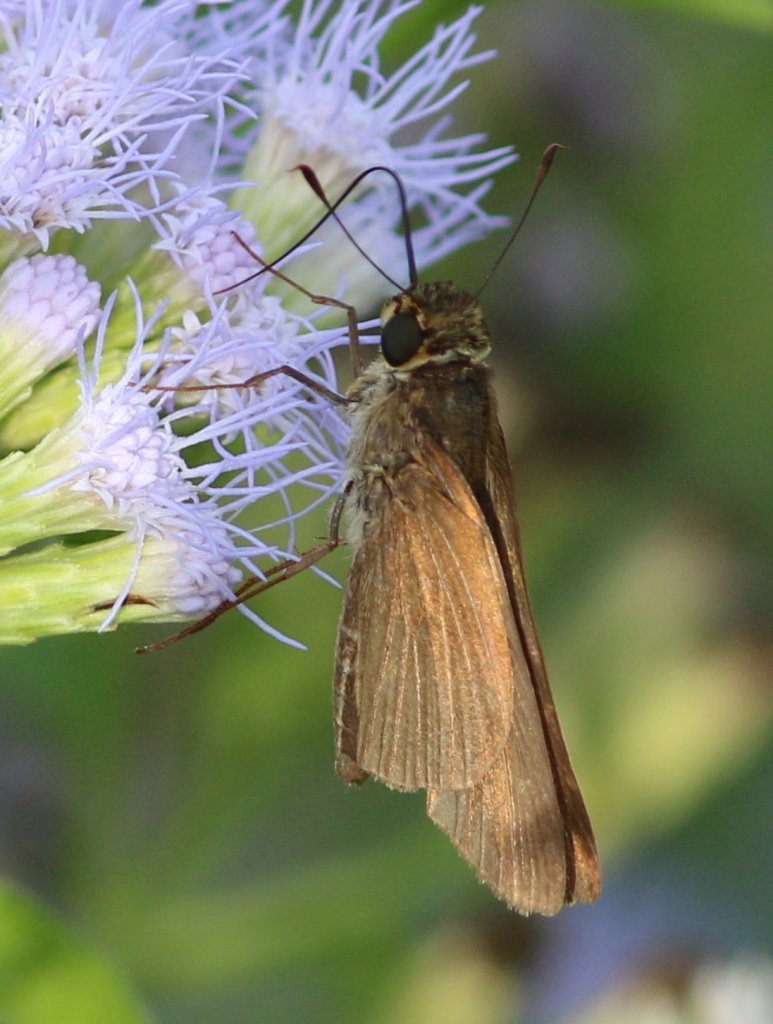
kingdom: Animalia
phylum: Arthropoda
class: Insecta
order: Lepidoptera
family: Hesperiidae
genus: Panoquina
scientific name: Panoquina ocola
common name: Ocola Skipper
